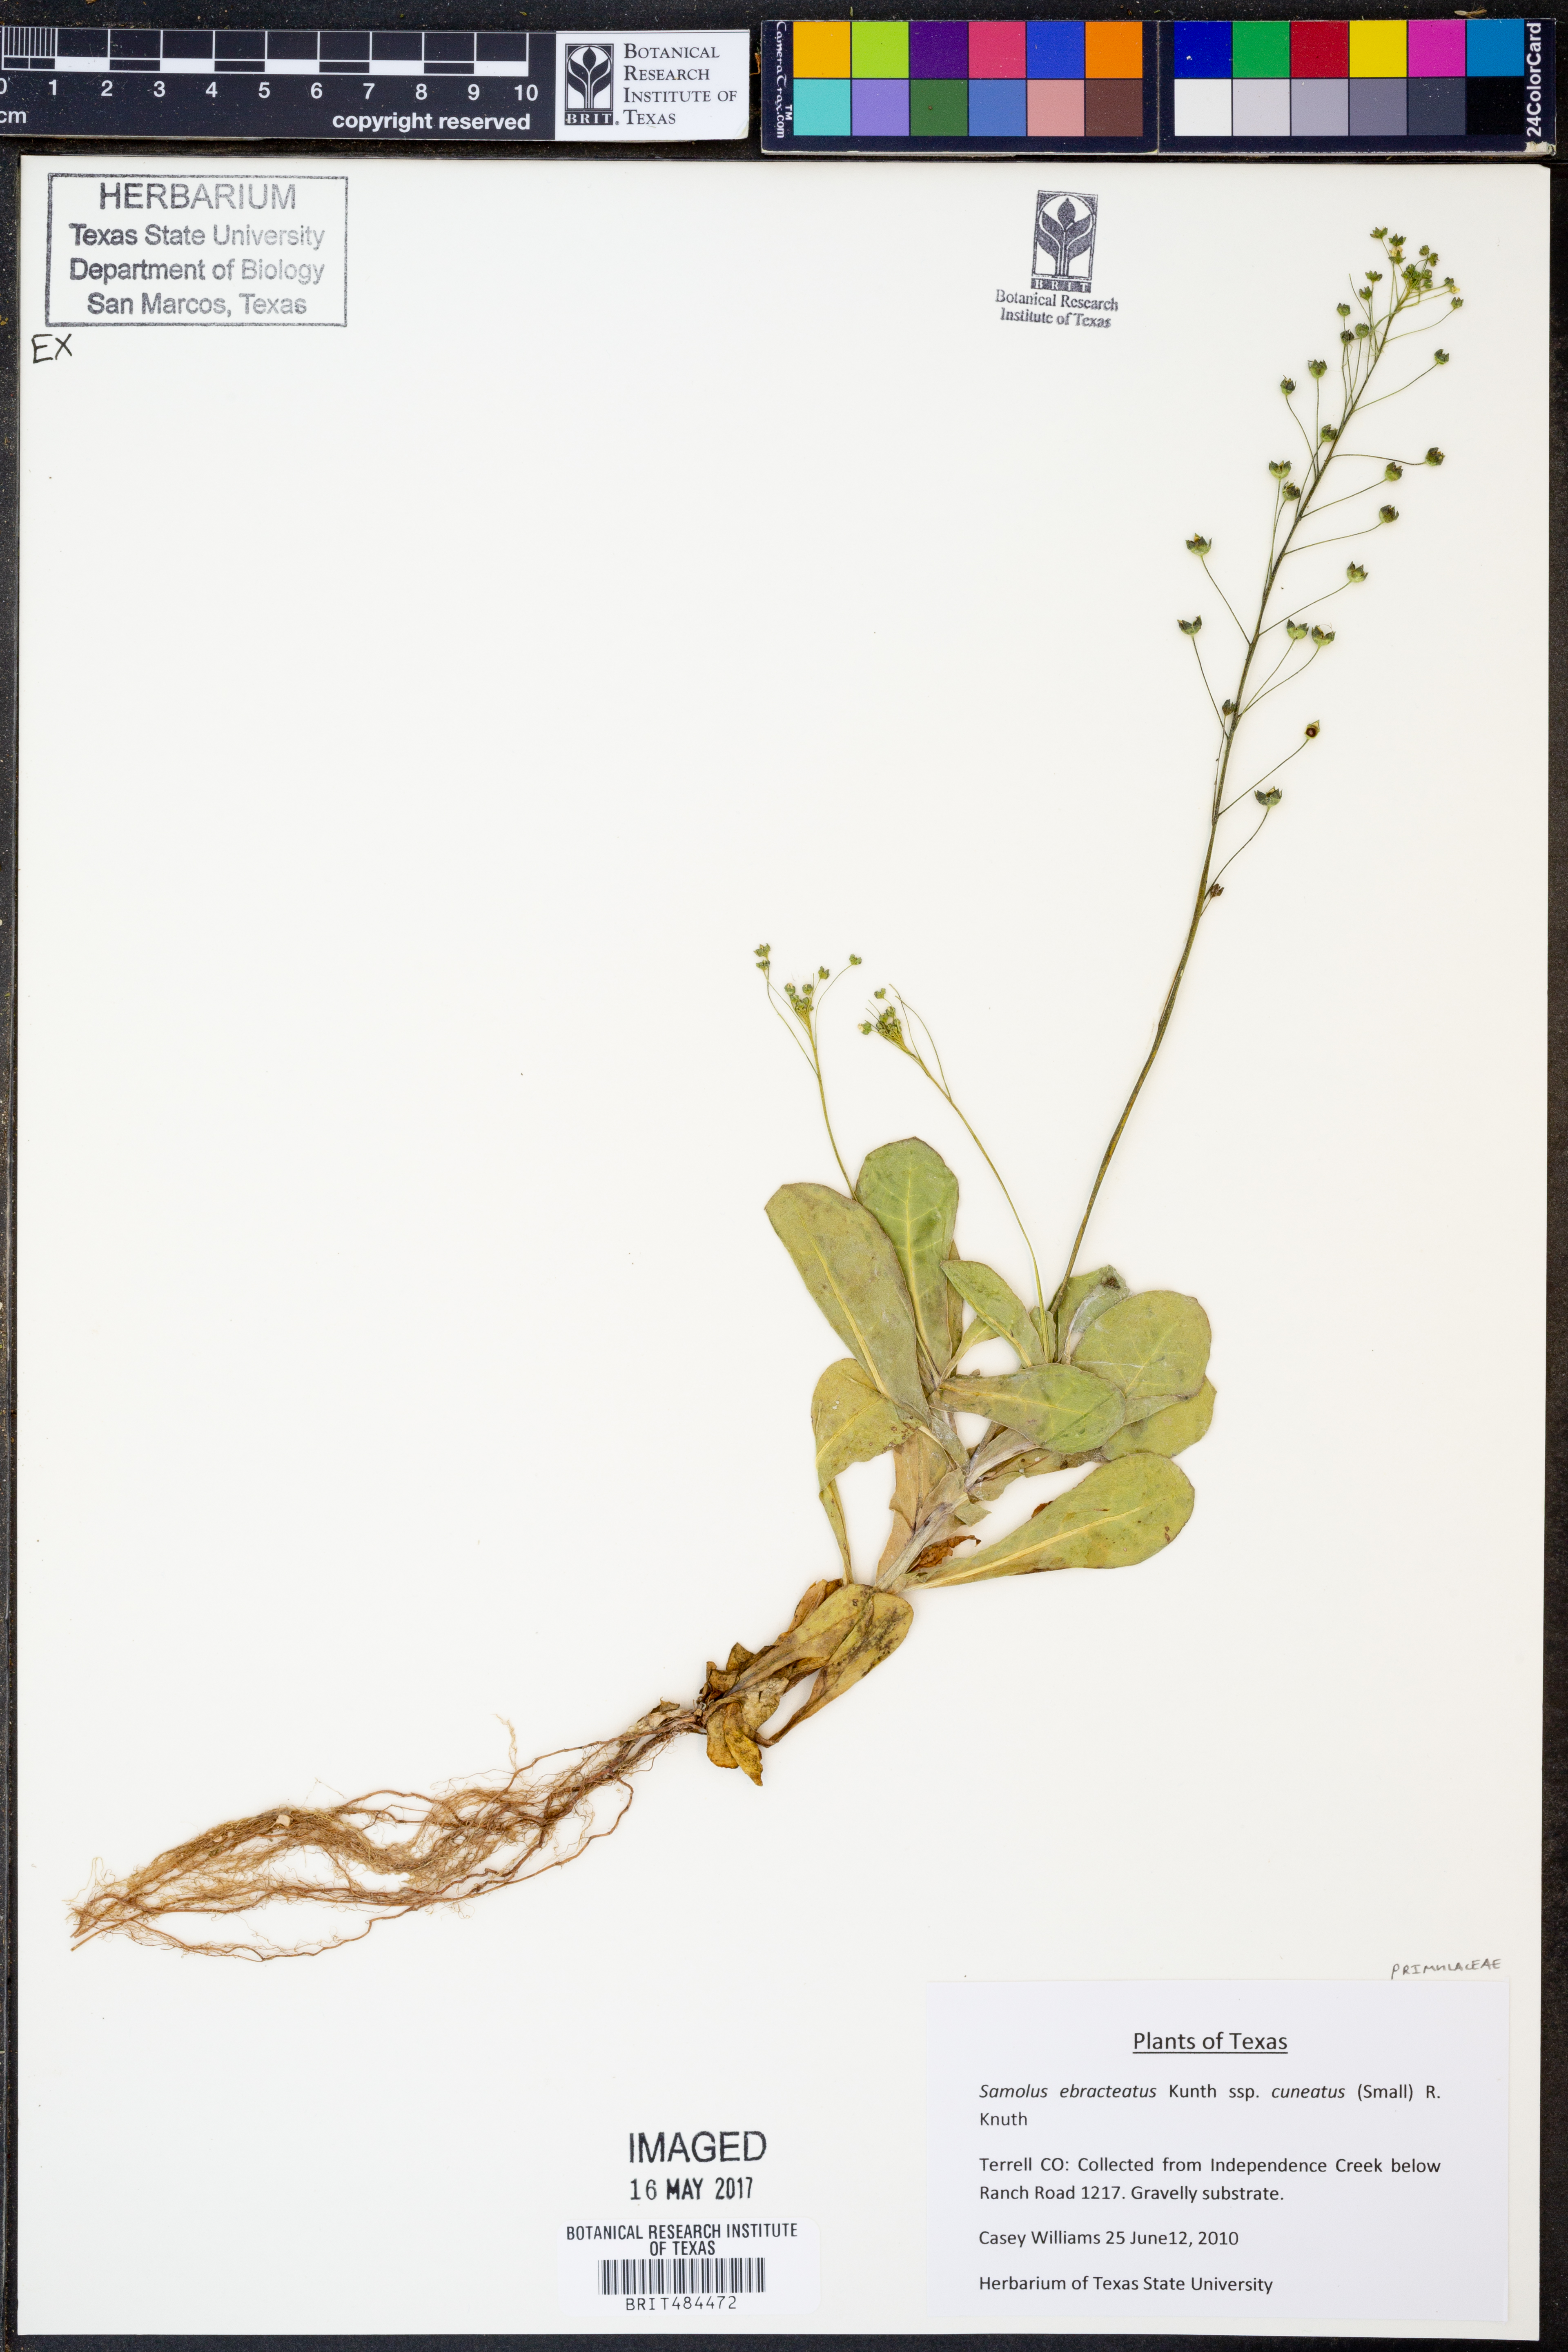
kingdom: Plantae
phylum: Tracheophyta
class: Magnoliopsida
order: Ericales
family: Primulaceae
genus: Samolus
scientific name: Samolus ebracteatus
